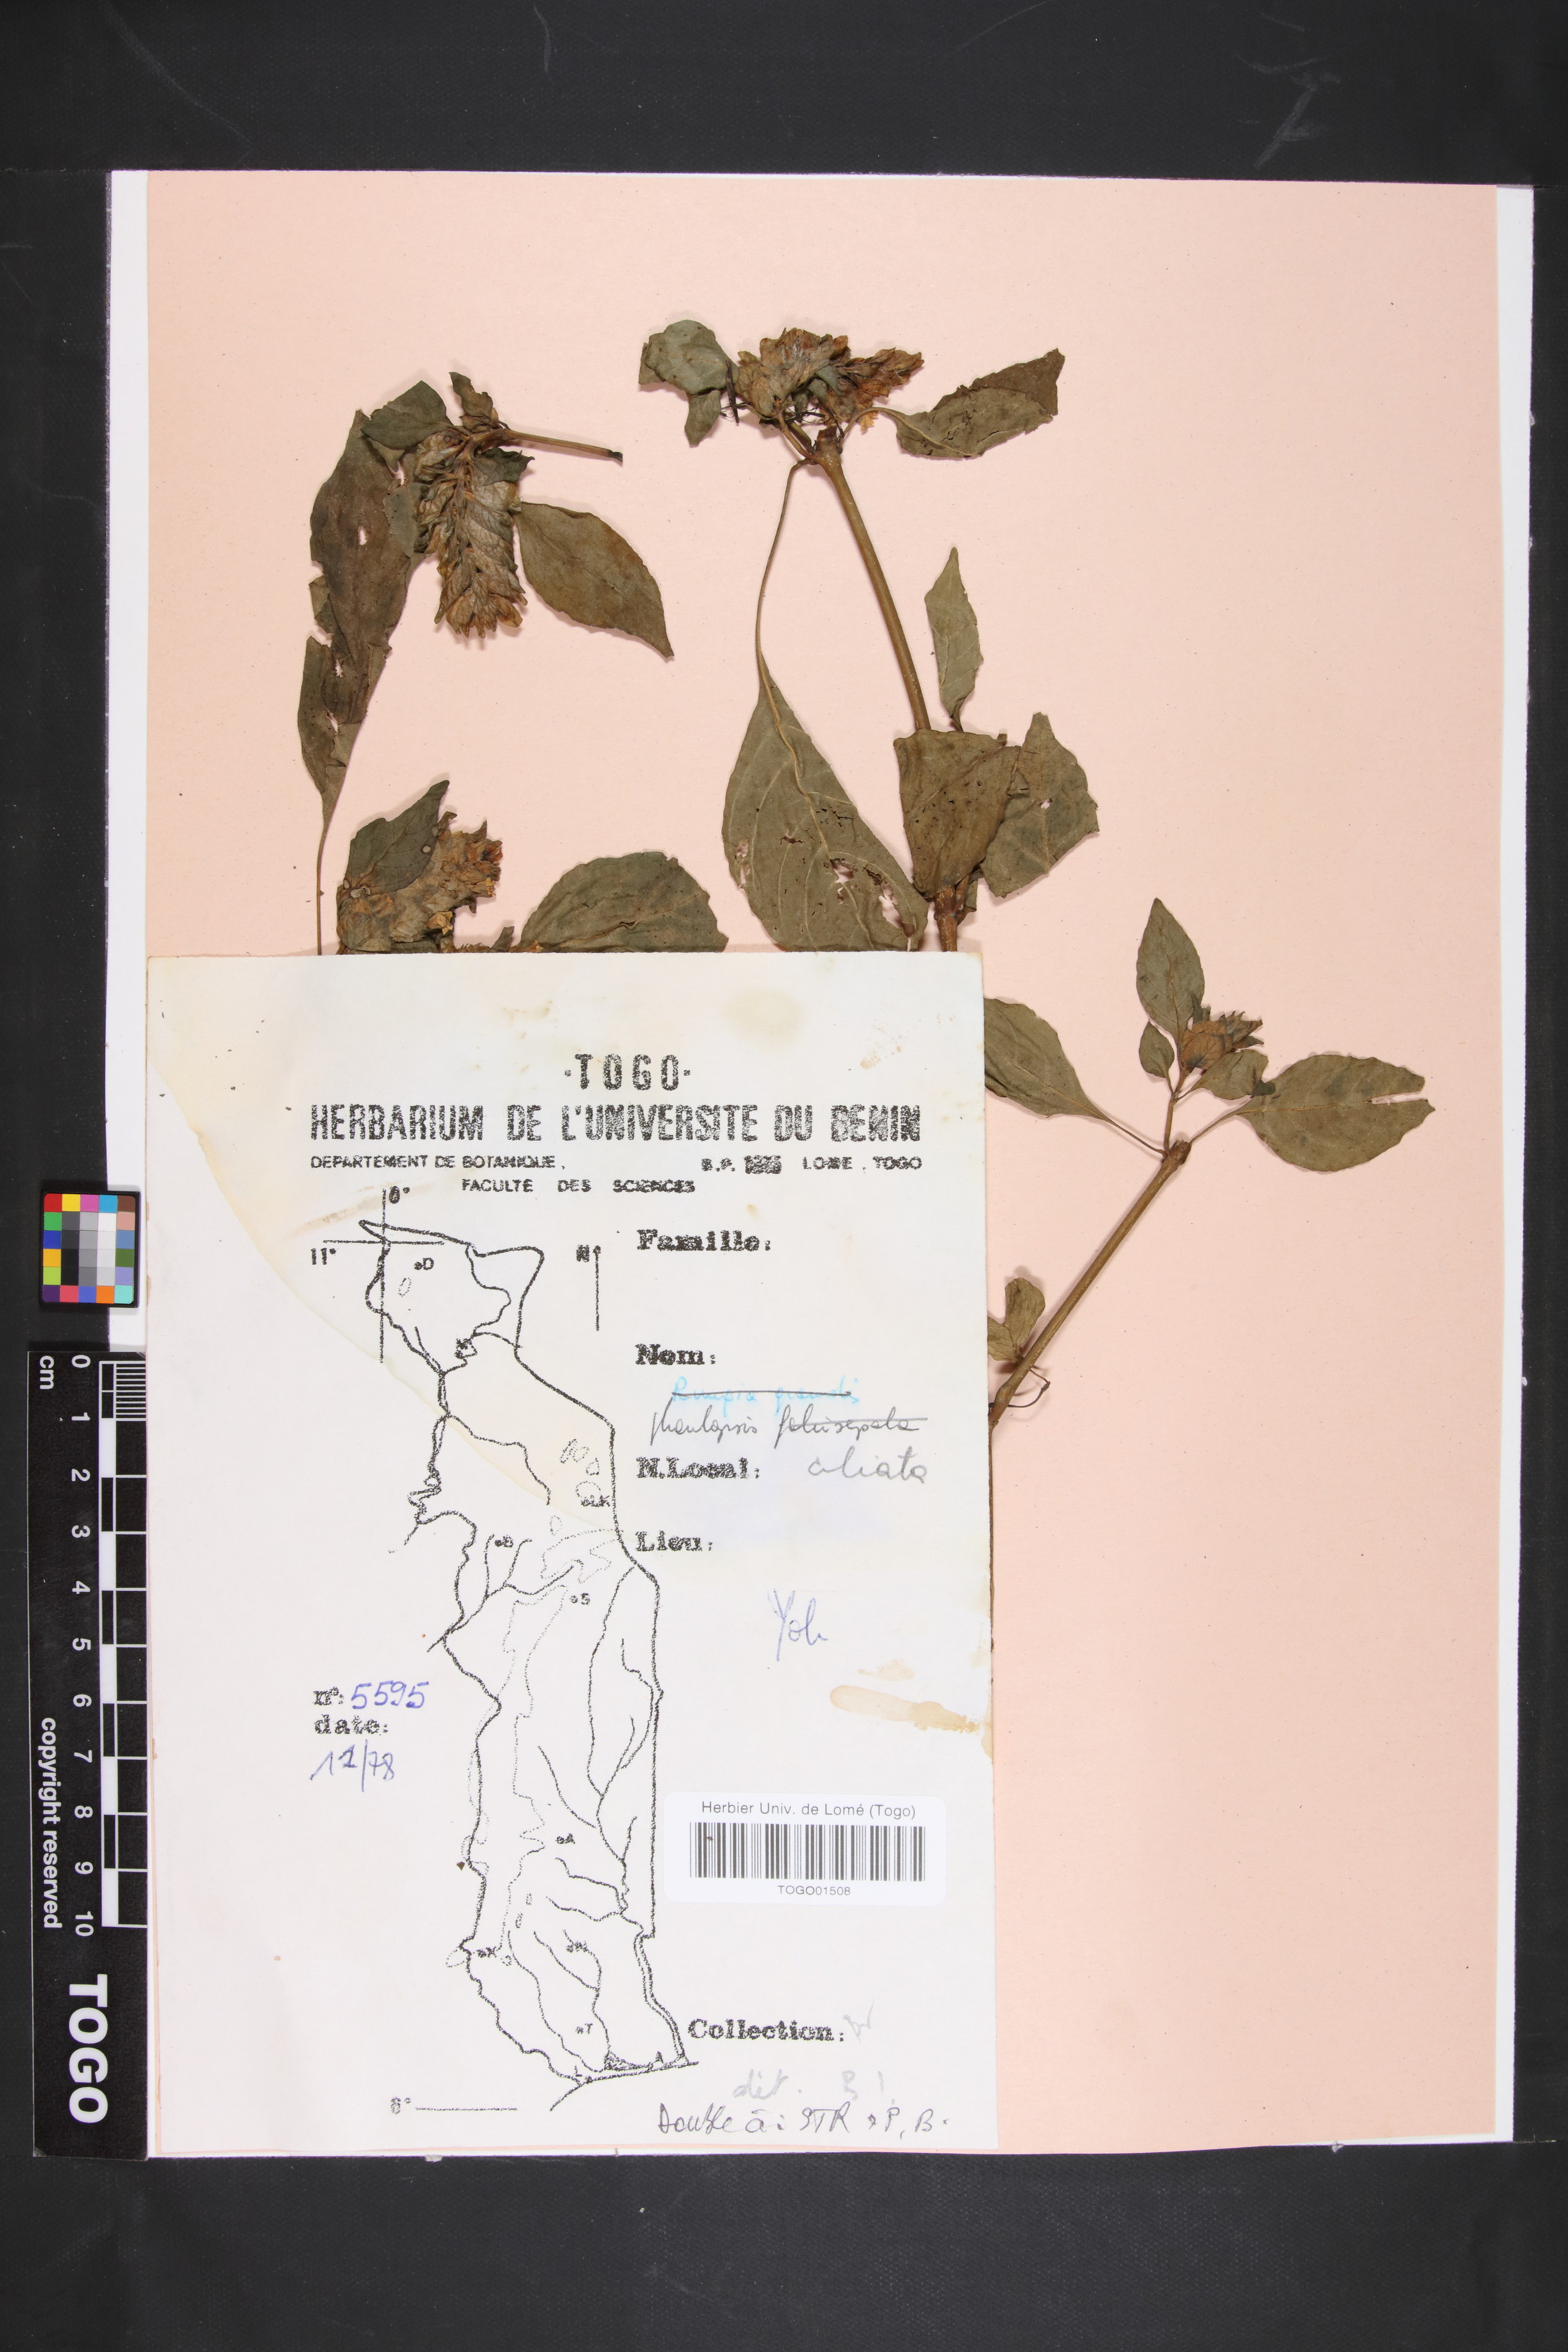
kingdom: Plantae
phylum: Tracheophyta
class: Magnoliopsida
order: Lamiales
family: Acanthaceae
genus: Phaulopsis
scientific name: Phaulopsis ciliata
